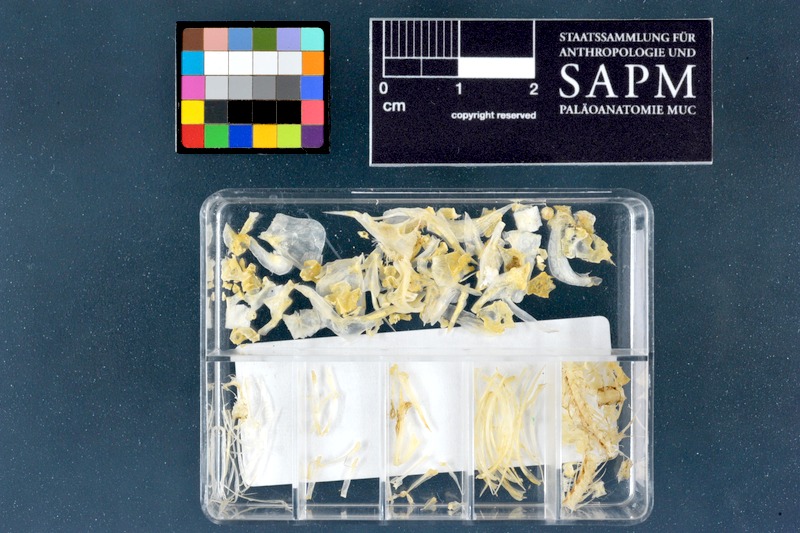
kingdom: Animalia
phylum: Chordata
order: Cypriniformes
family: Cyprinidae
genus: Cyprinion
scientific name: Cyprinion kais
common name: Smallmouth lotak
